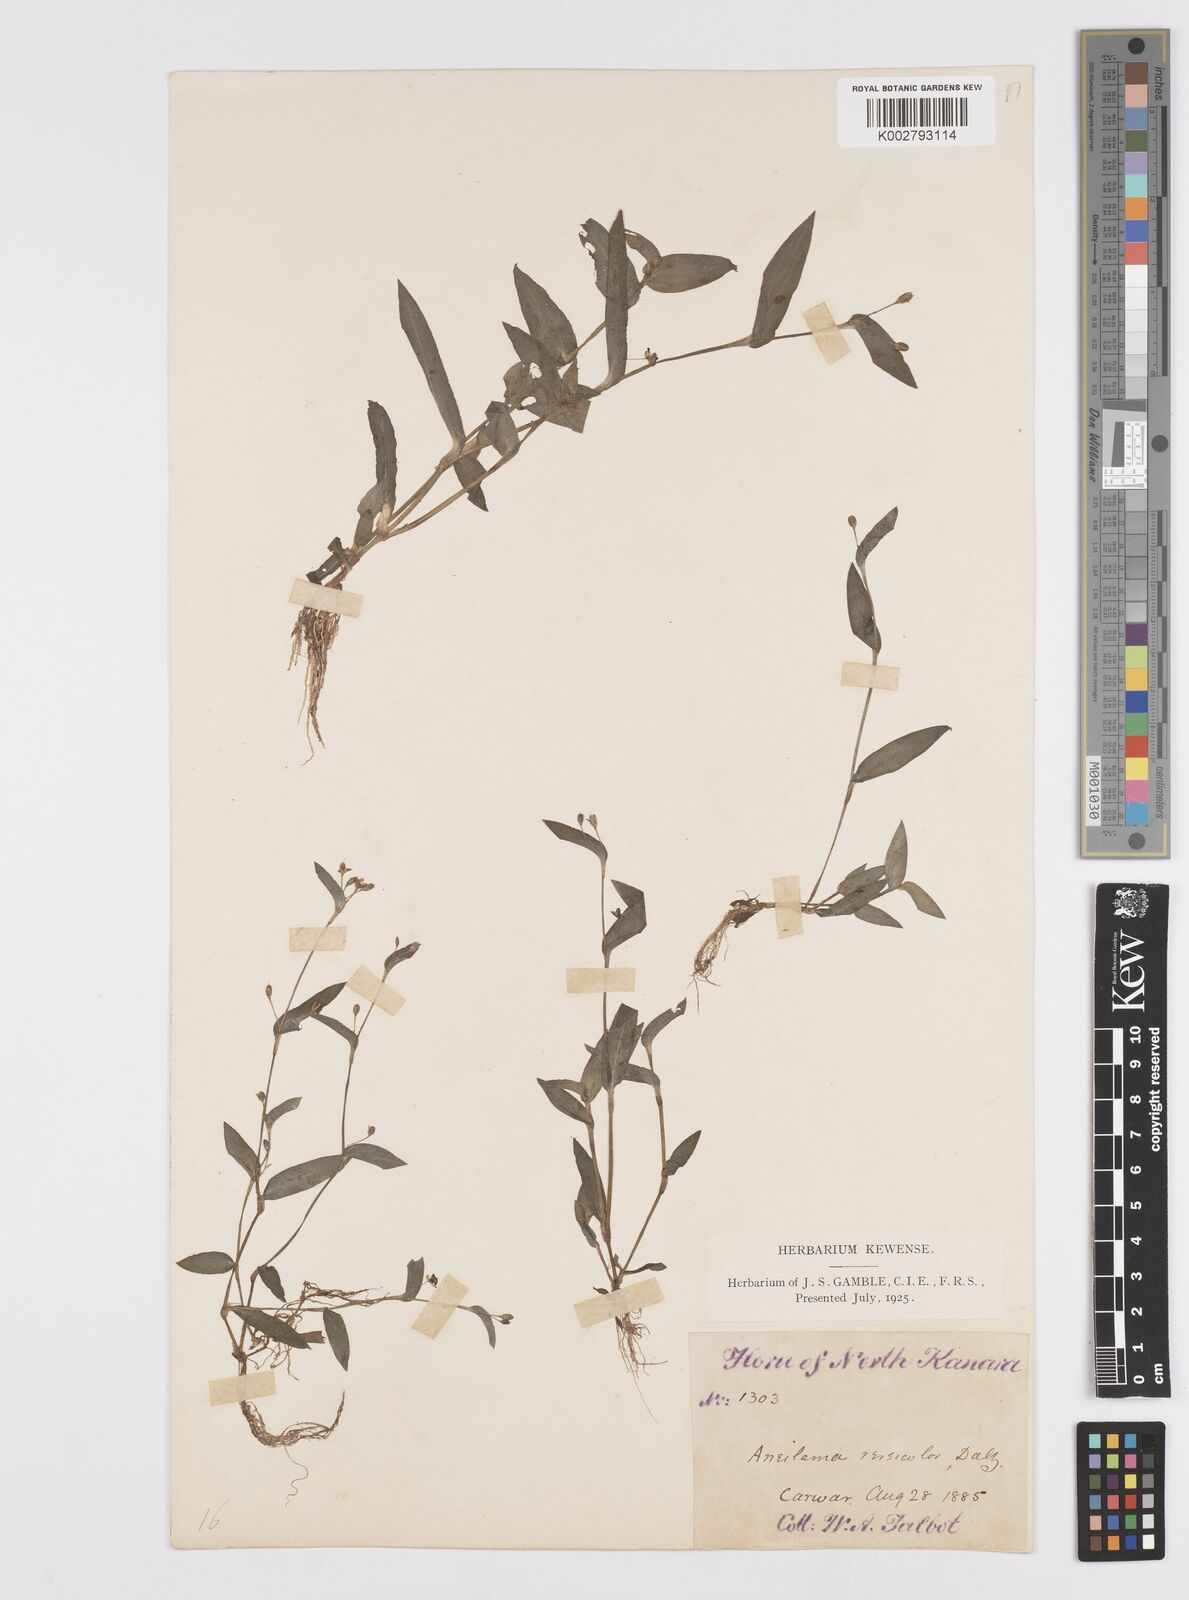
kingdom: Plantae
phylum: Tracheophyta
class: Liliopsida
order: Commelinales
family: Commelinaceae
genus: Murdannia
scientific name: Murdannia versicolor
